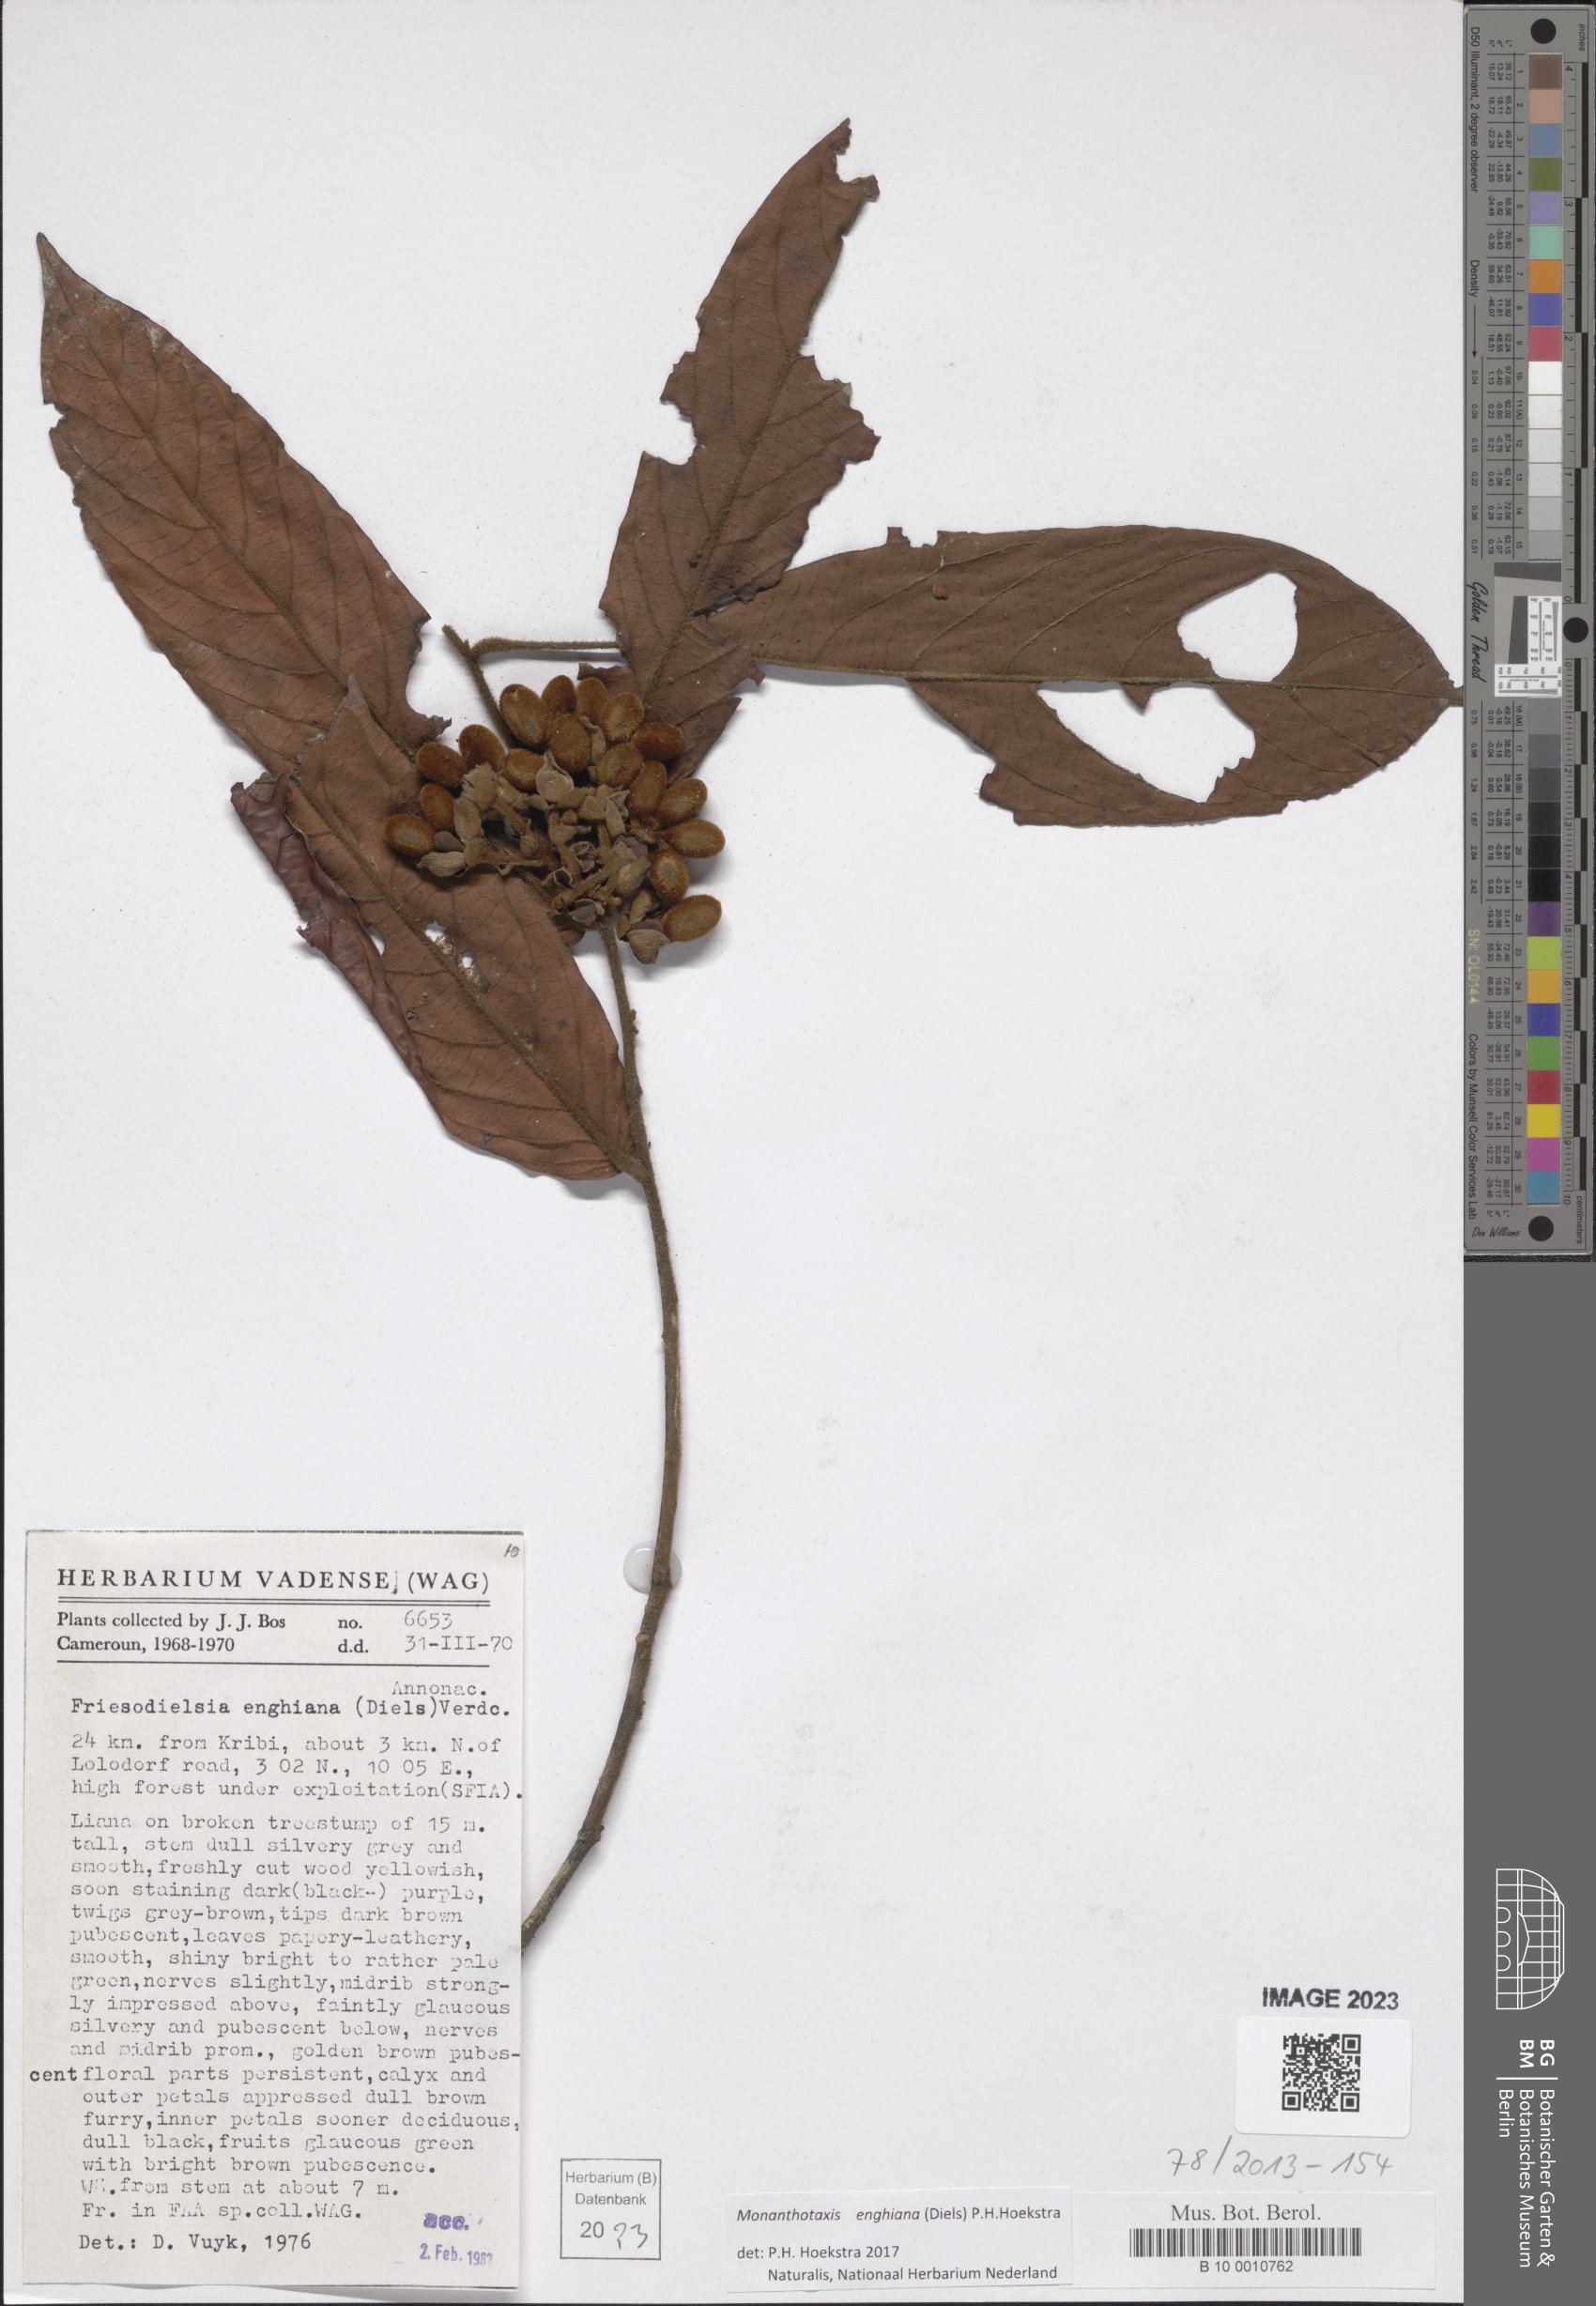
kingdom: Plantae
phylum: Tracheophyta
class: Magnoliopsida
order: Magnoliales
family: Annonaceae
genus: Friesodielsia
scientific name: Friesodielsia enghiana
